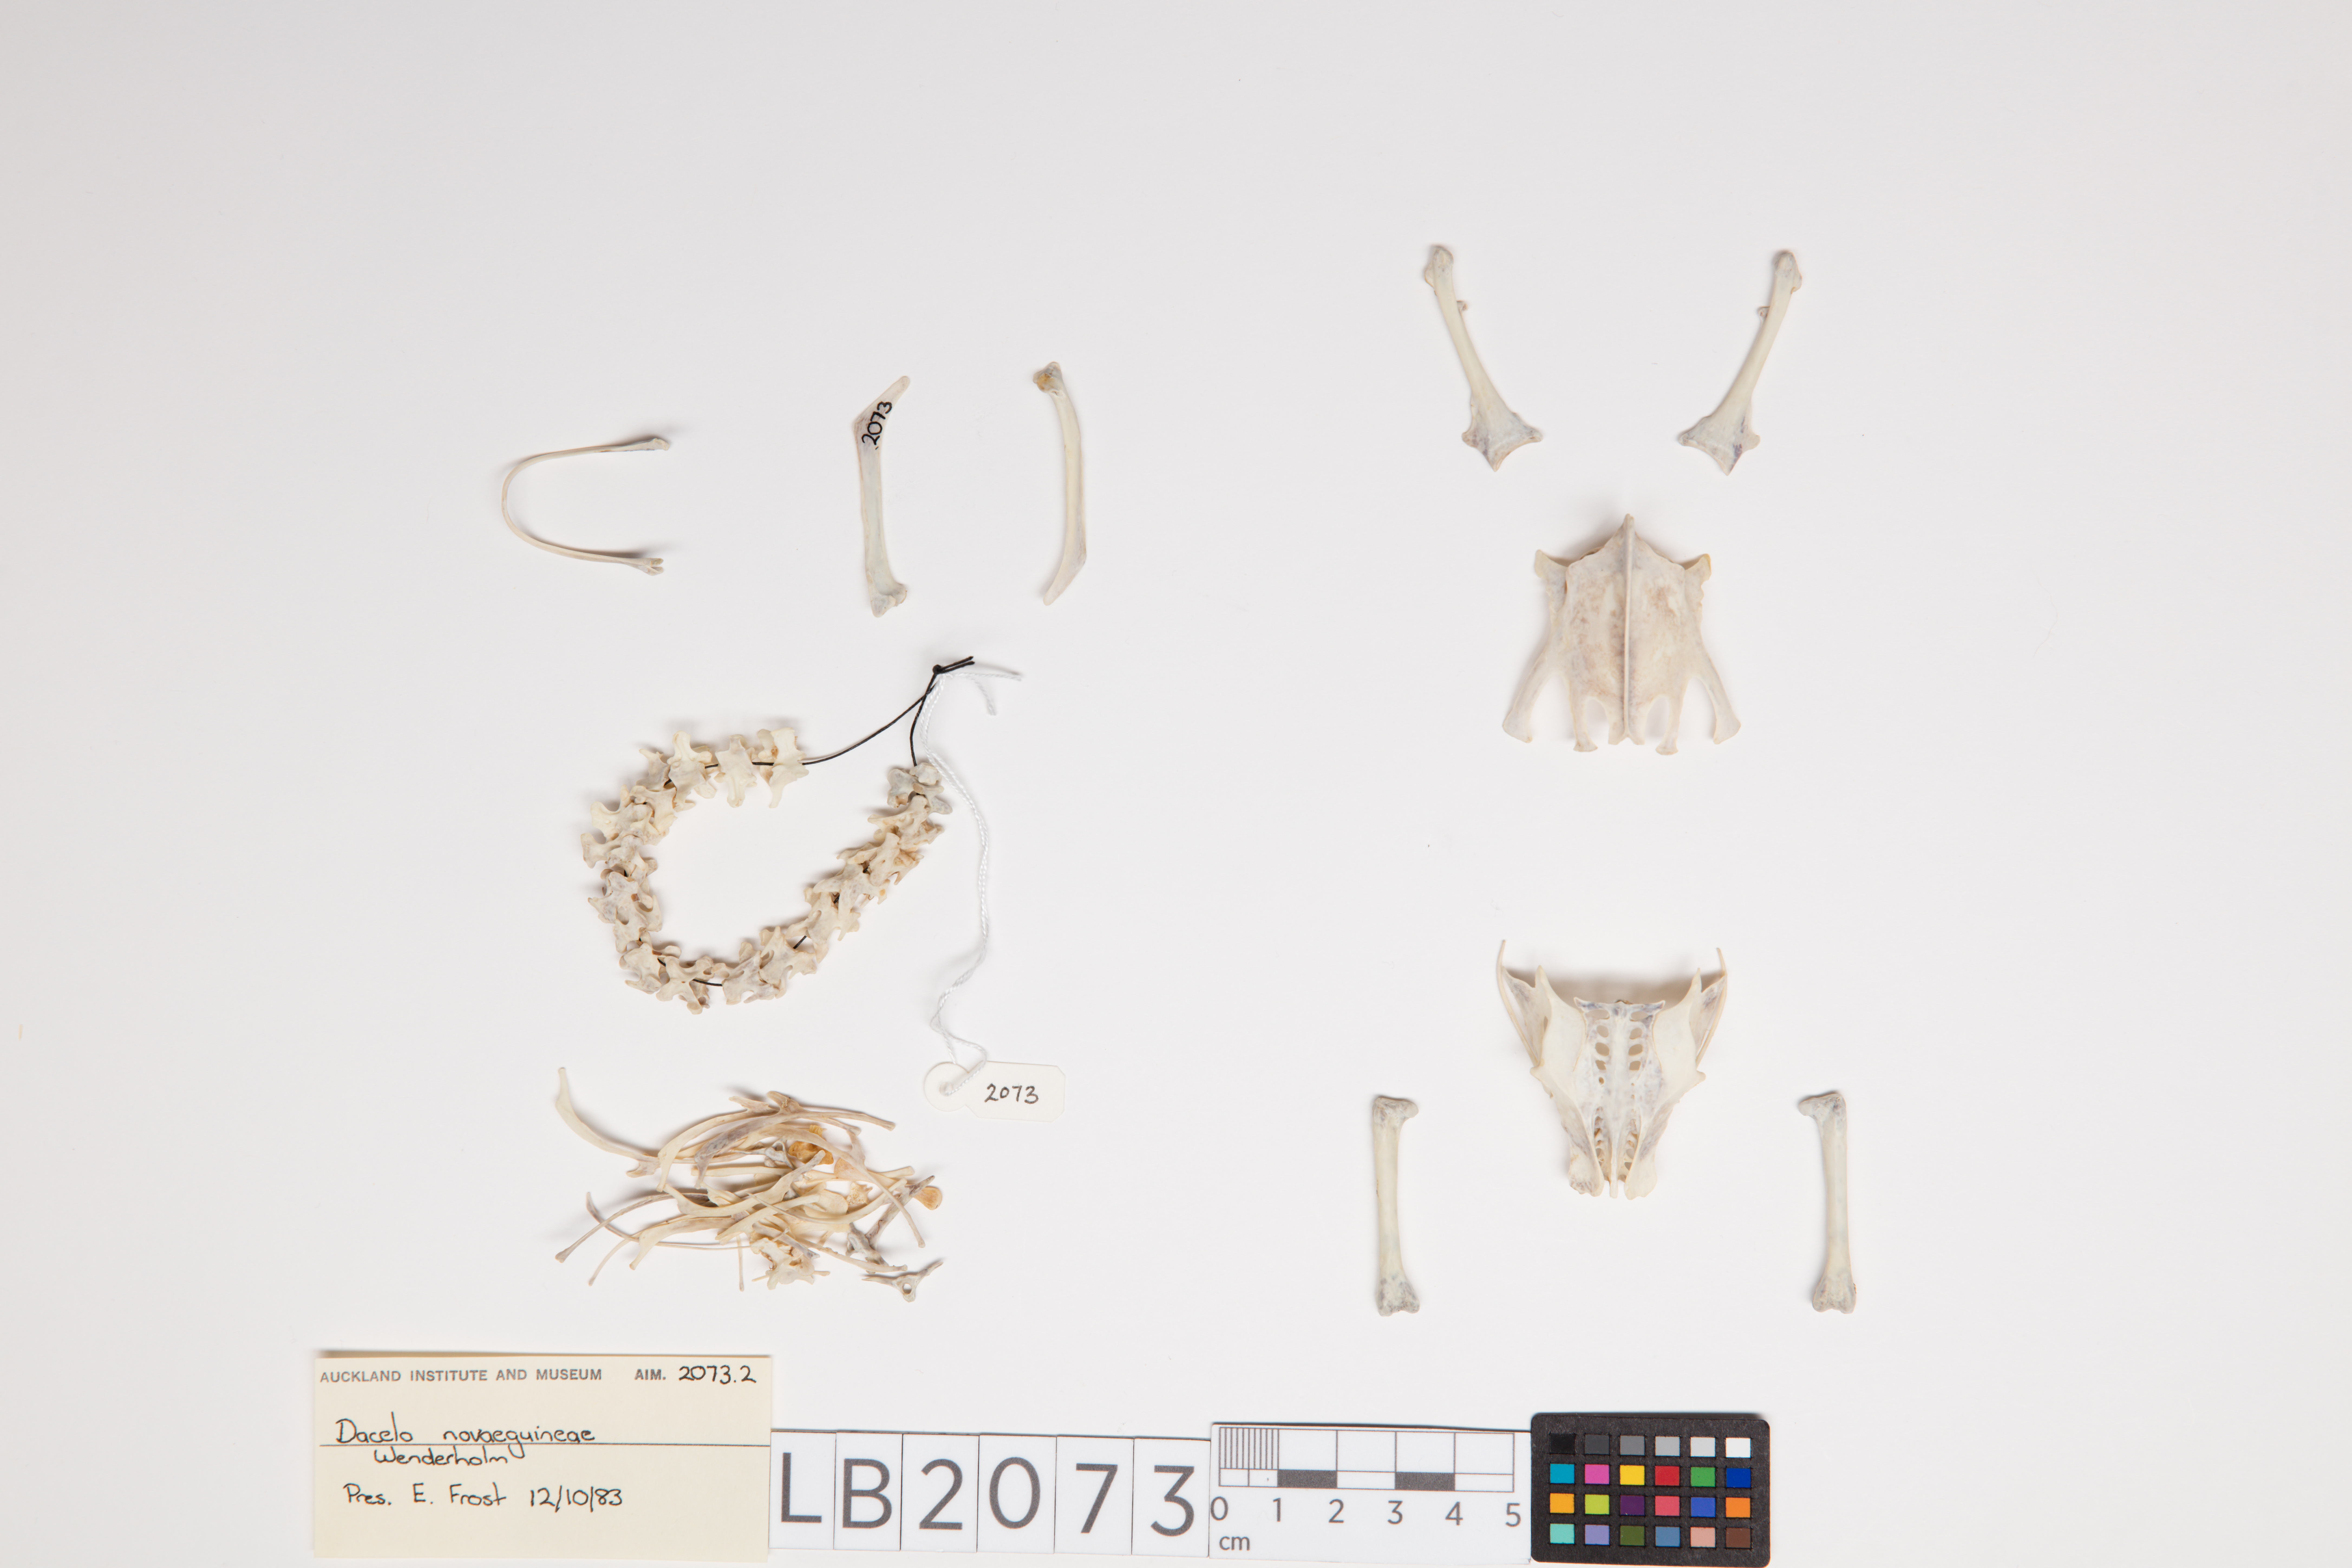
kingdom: Animalia
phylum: Chordata
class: Aves
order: Coraciiformes
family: Alcedinidae
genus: Dacelo
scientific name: Dacelo novaeguineae
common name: Laughing kookaburra
